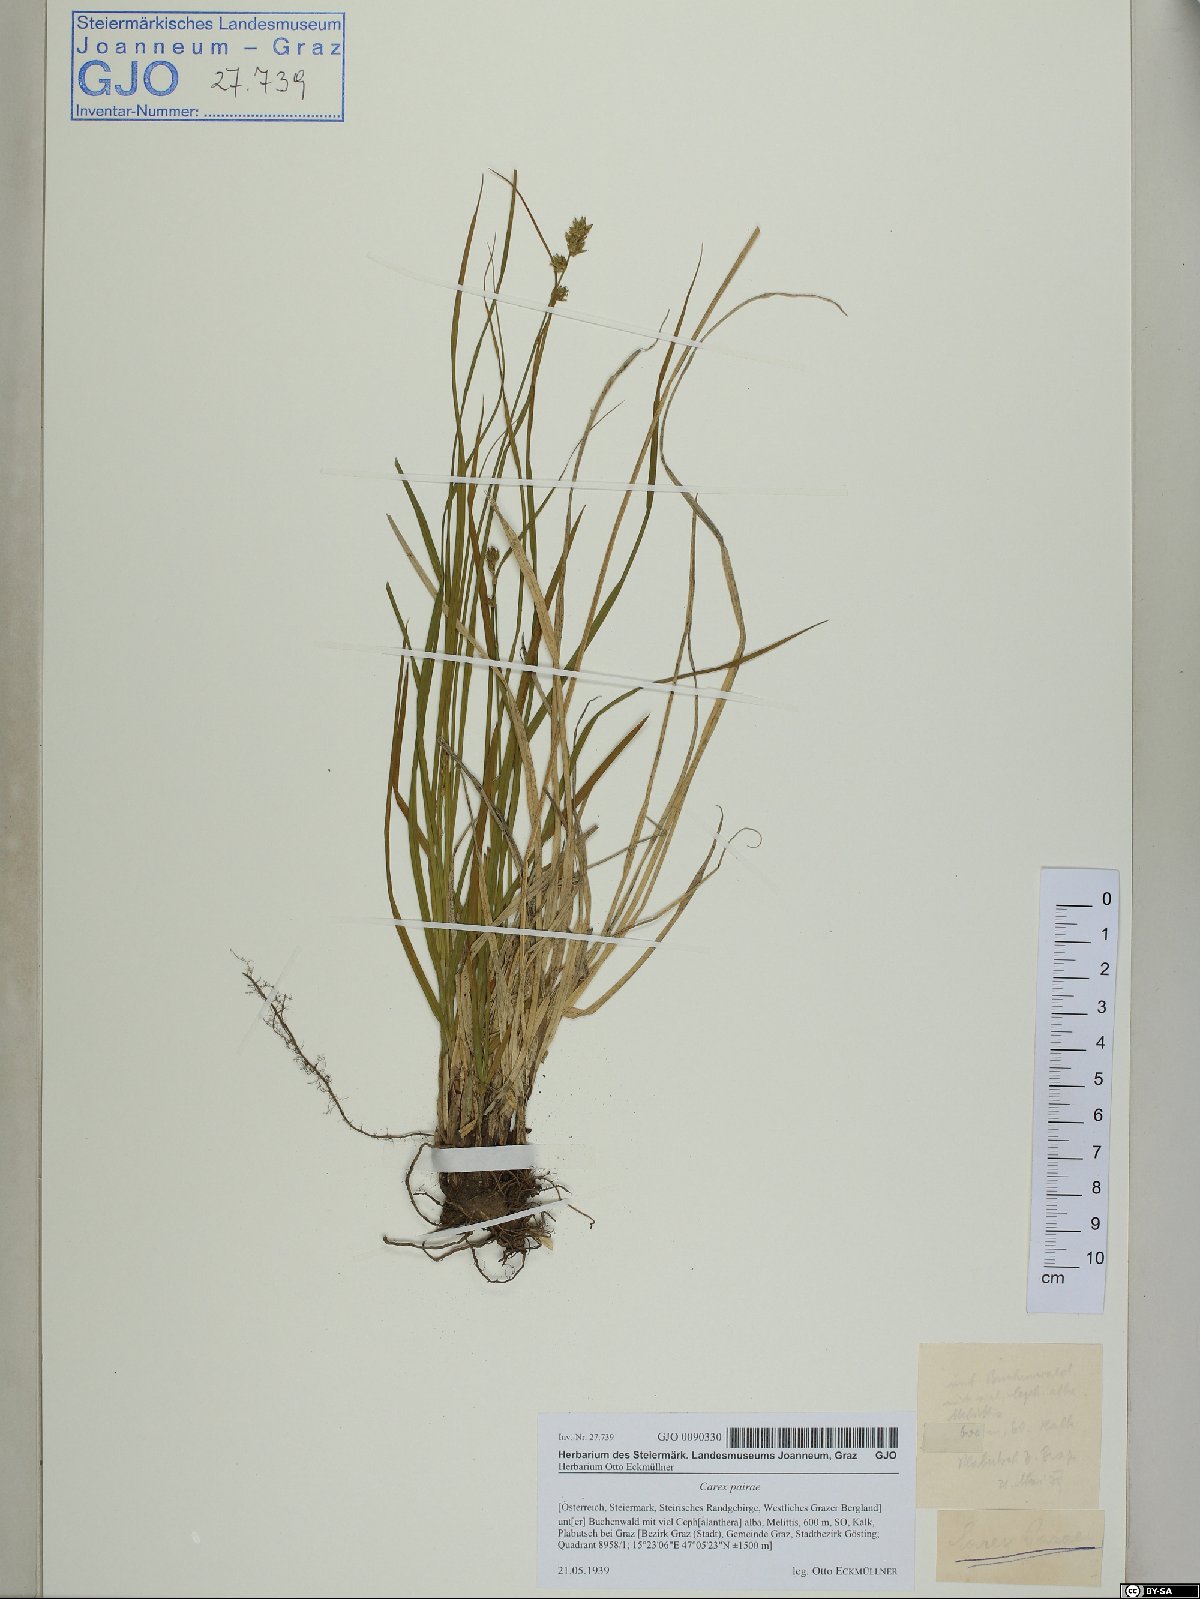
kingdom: Plantae
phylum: Tracheophyta
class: Liliopsida
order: Poales
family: Cyperaceae
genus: Carex
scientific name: Carex pairae
